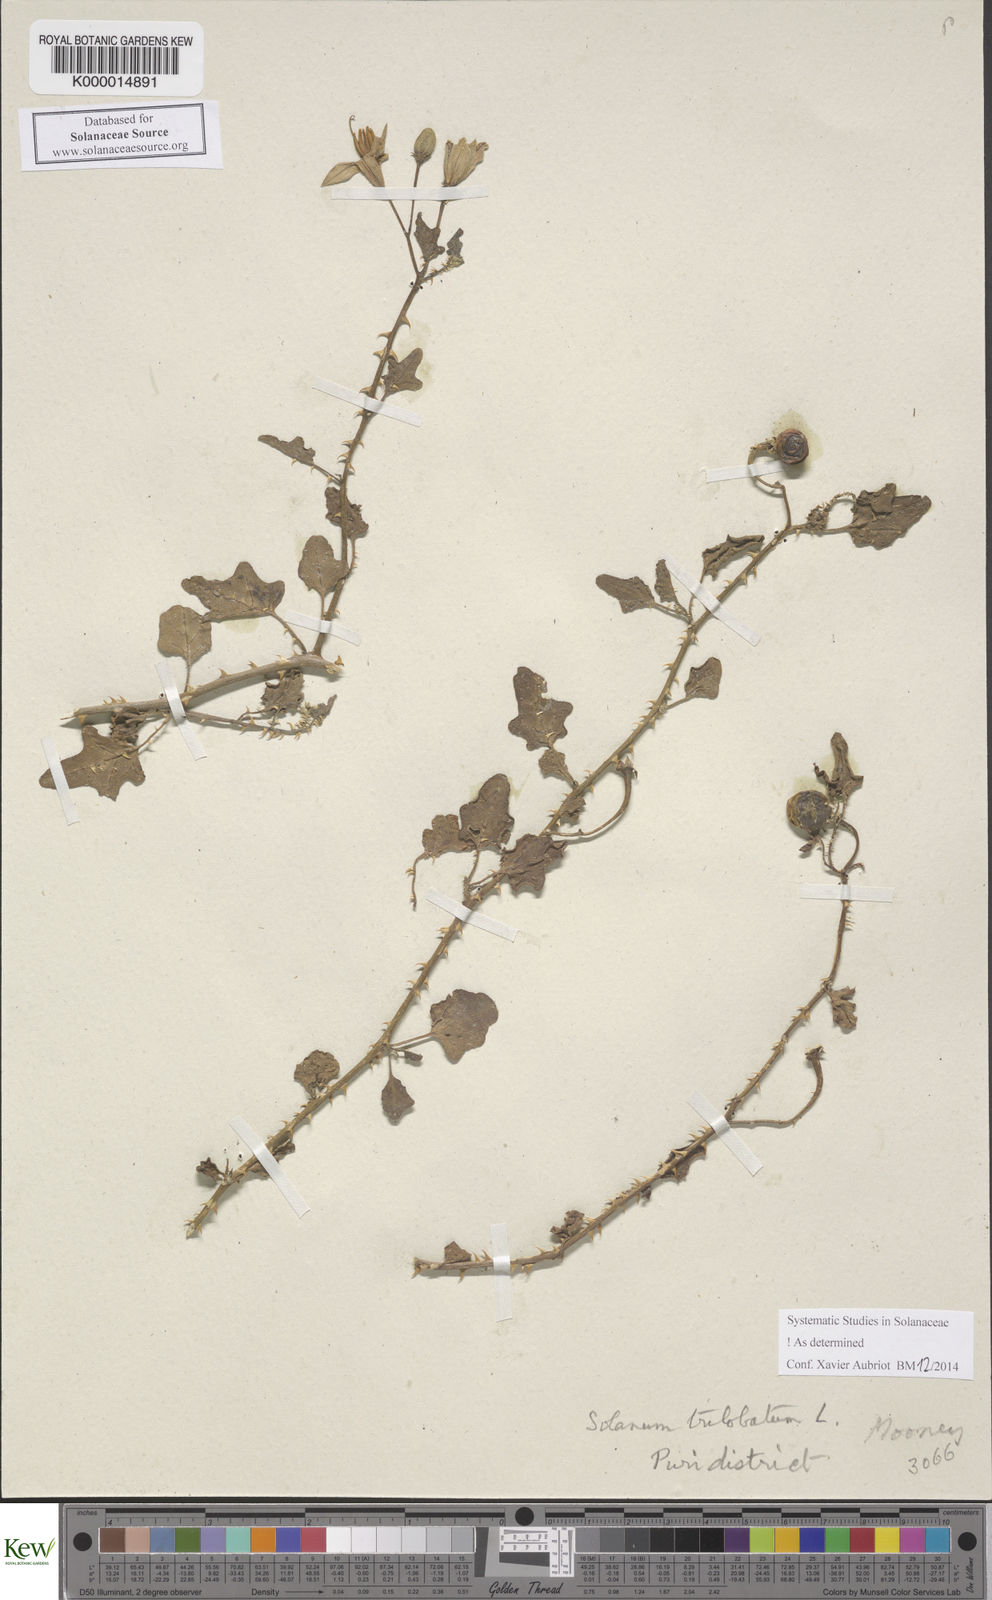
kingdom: Plantae
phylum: Tracheophyta
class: Magnoliopsida
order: Solanales
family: Solanaceae
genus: Solanum
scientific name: Solanum trilobatum
